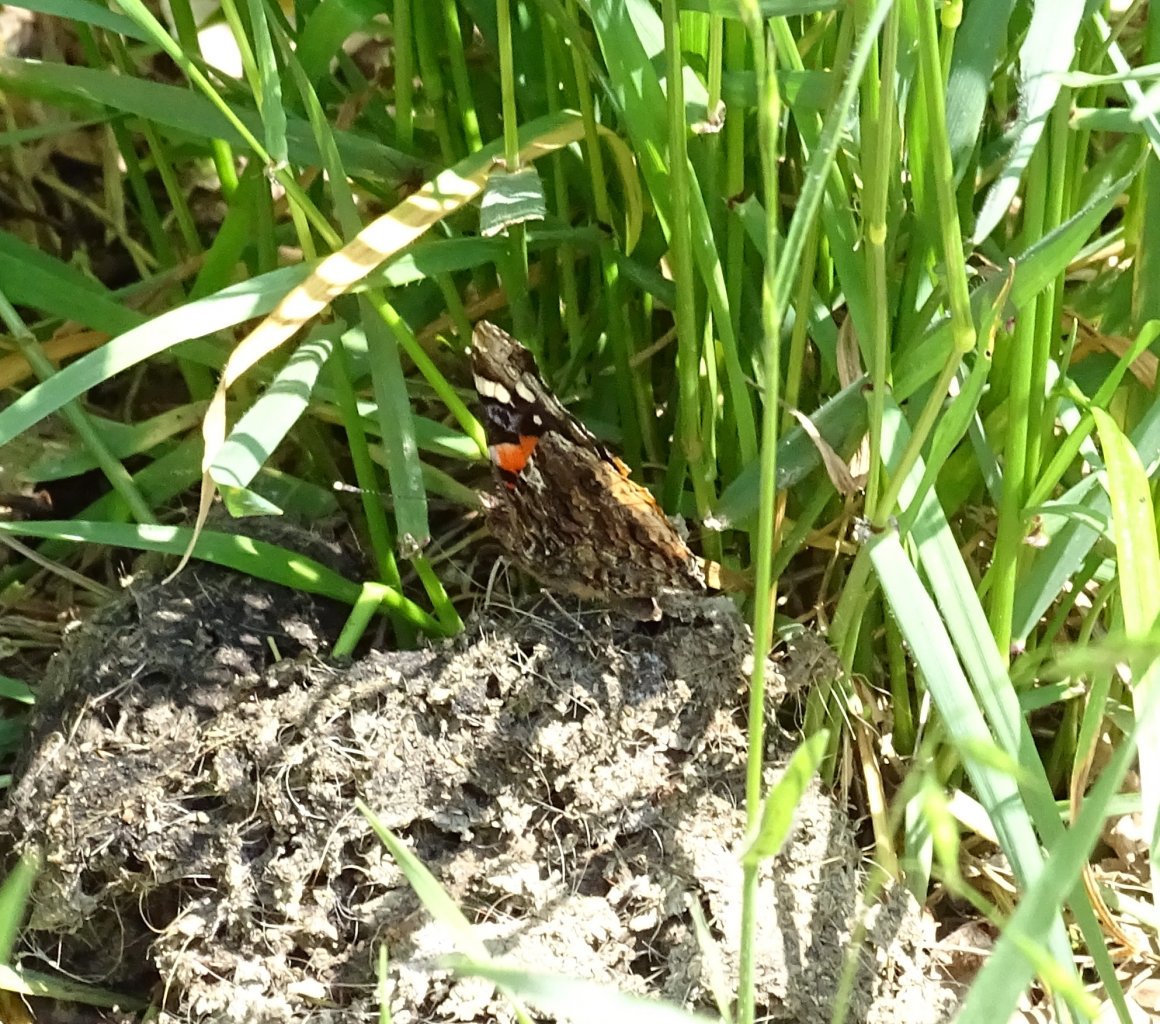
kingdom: Animalia
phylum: Arthropoda
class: Insecta
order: Lepidoptera
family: Nymphalidae
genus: Vanessa
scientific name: Vanessa atalanta
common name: Red Admiral
